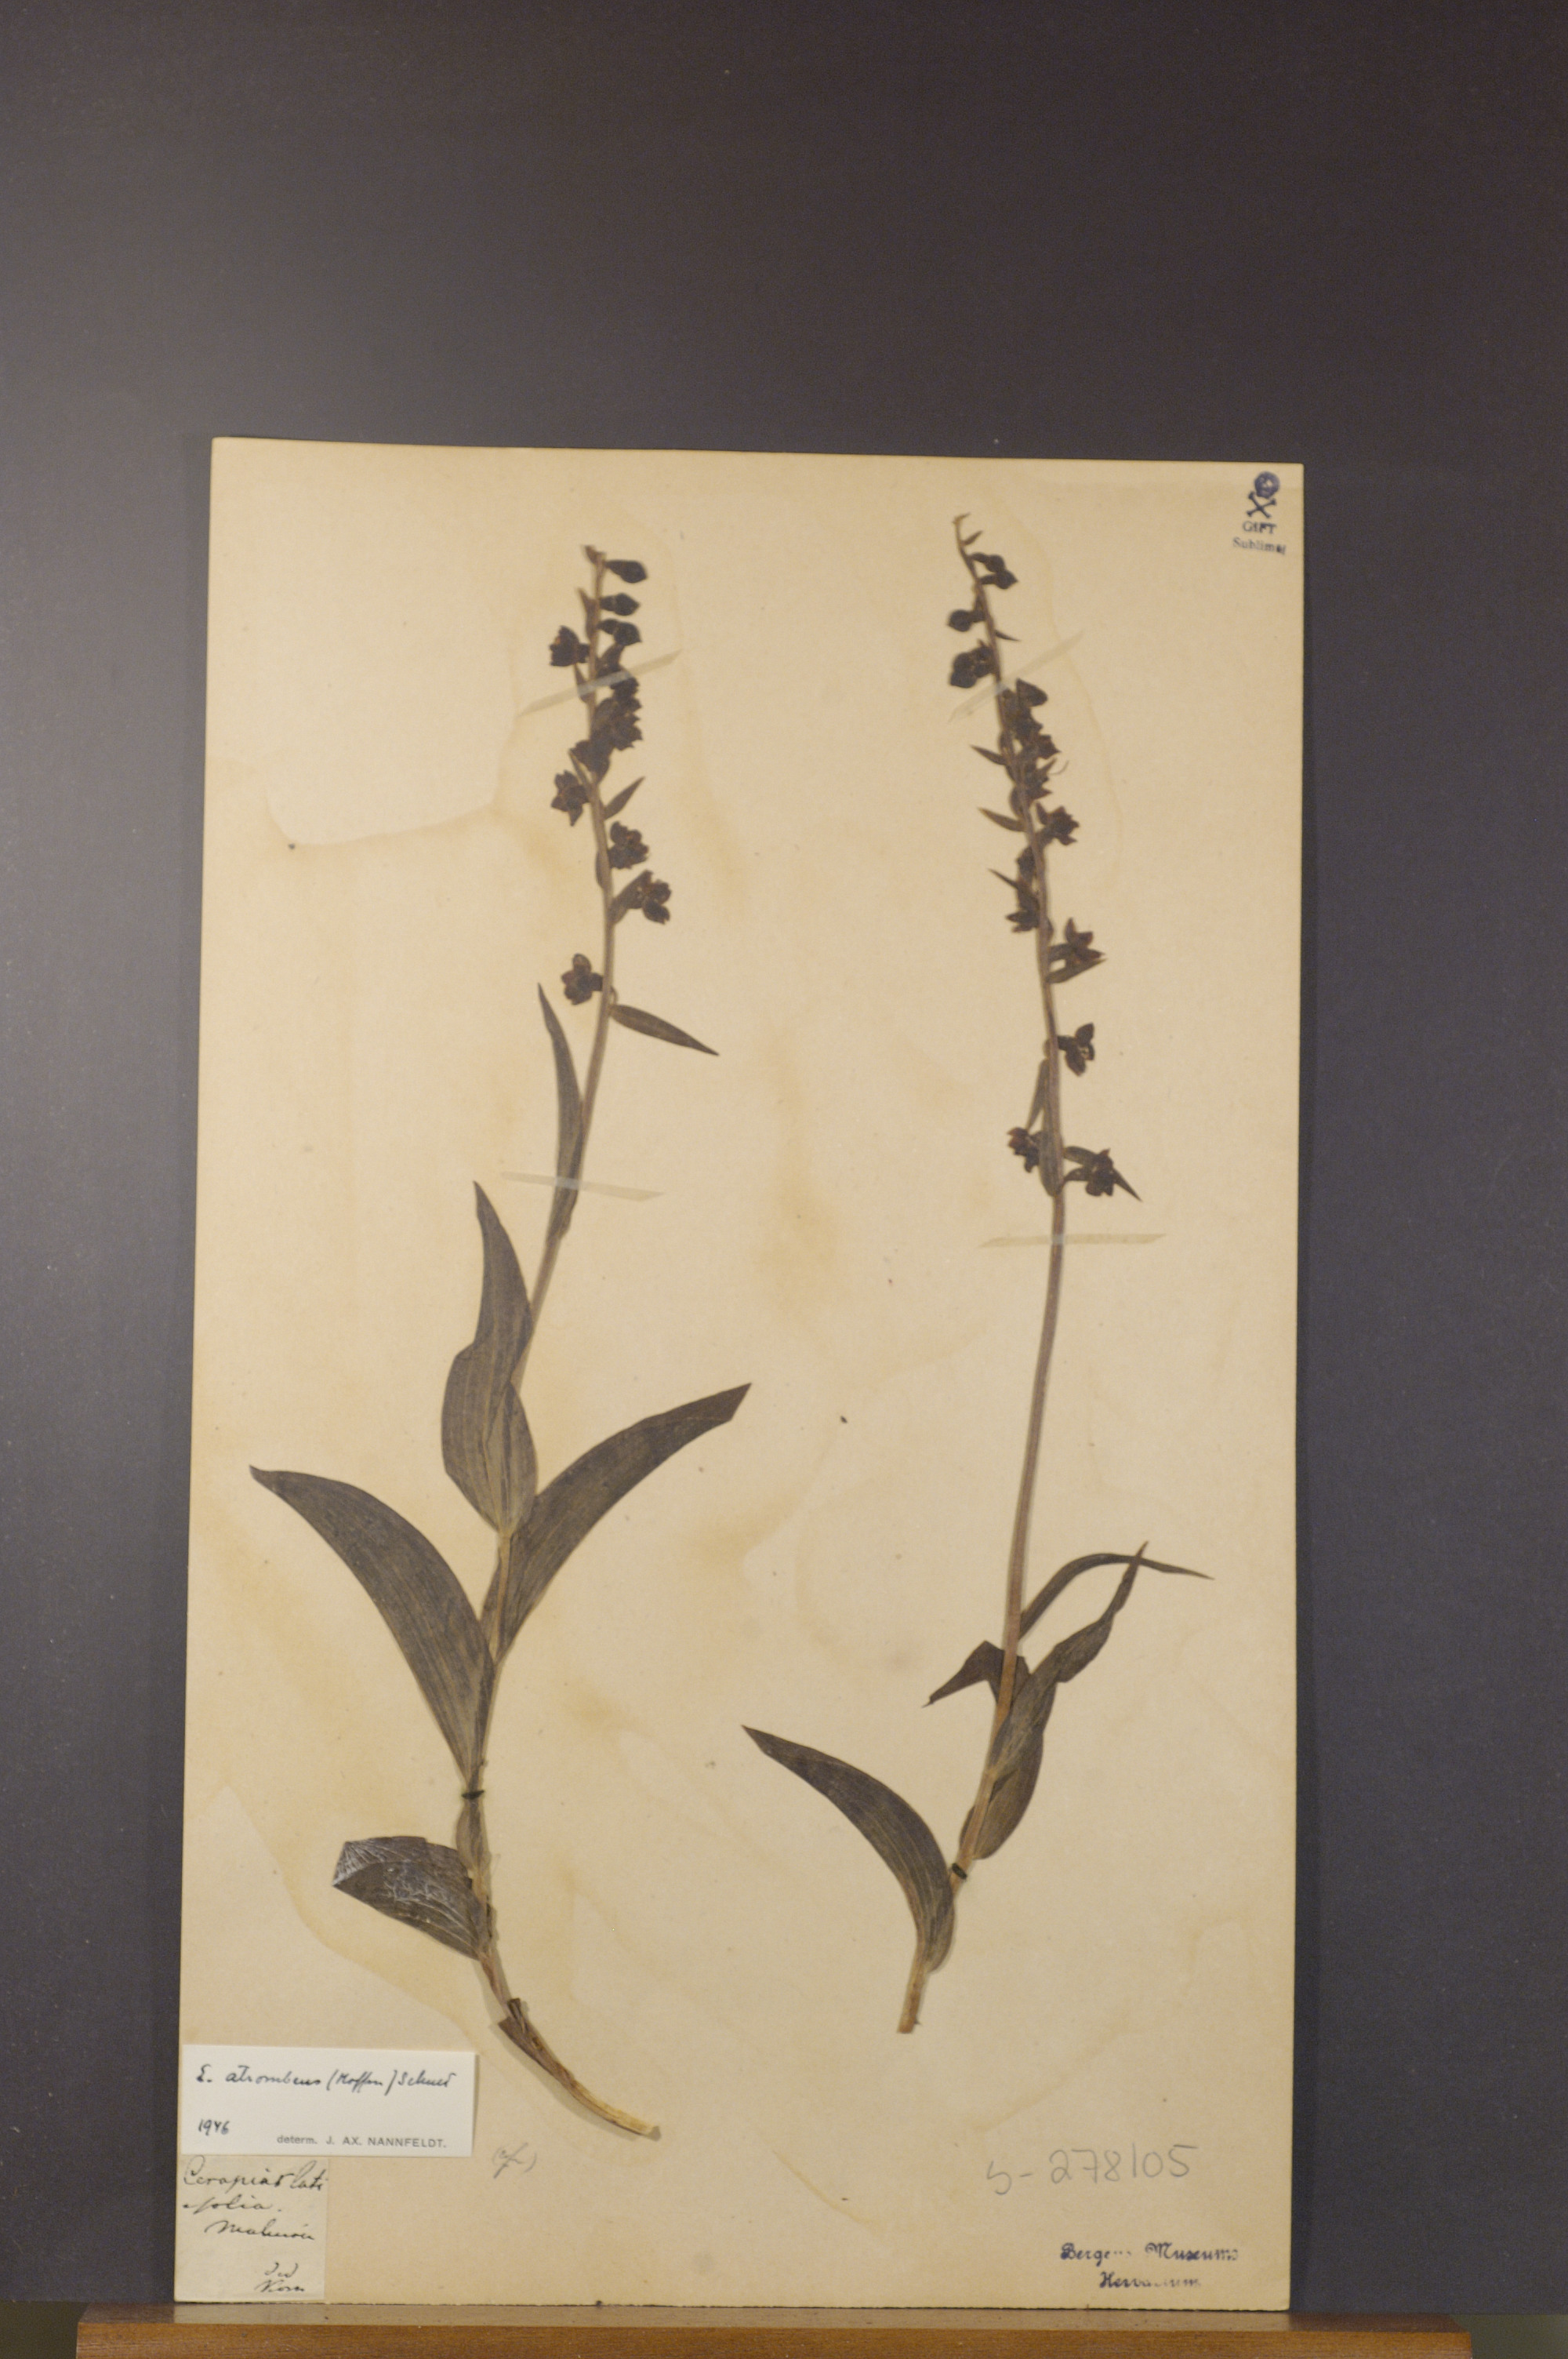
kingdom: Plantae
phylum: Tracheophyta
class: Liliopsida
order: Asparagales
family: Orchidaceae
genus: Epipactis
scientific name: Epipactis atrorubens
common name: Dark-red helleborine
